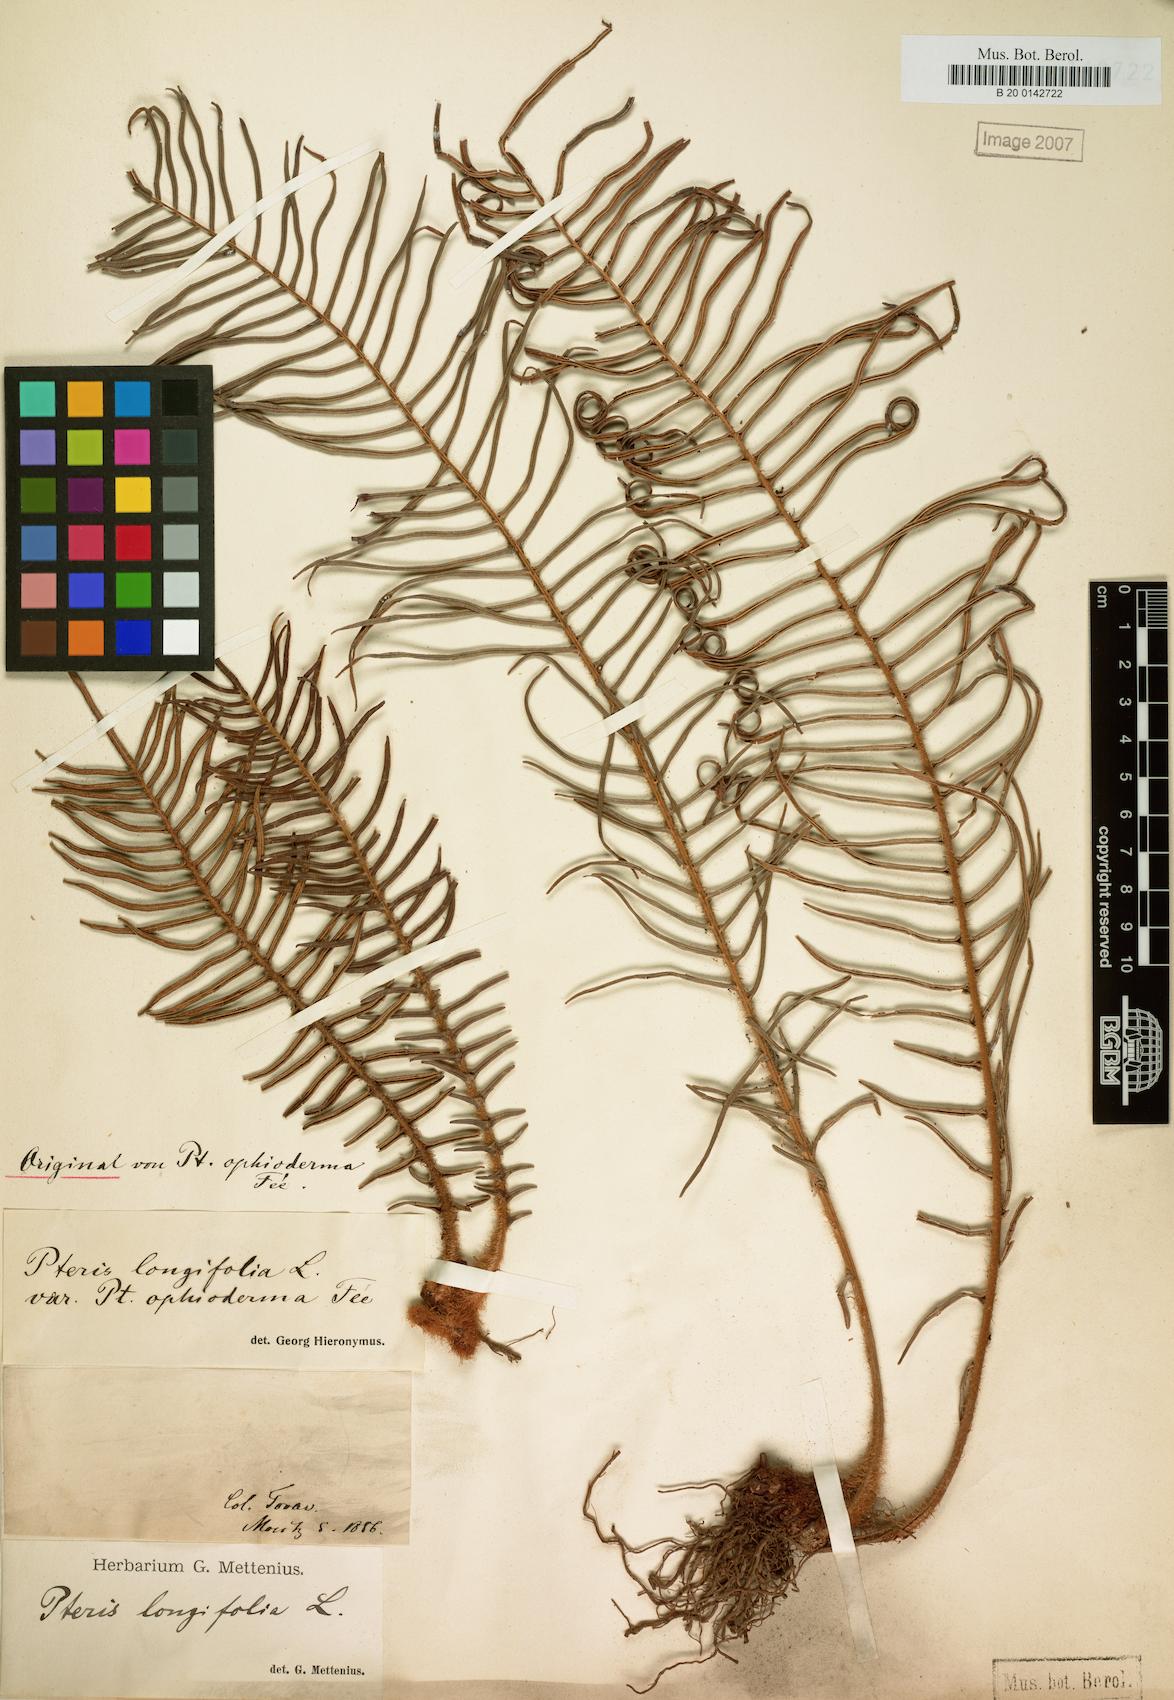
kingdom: Plantae
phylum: Tracheophyta
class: Polypodiopsida
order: Polypodiales
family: Pteridaceae
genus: Pteris
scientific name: Pteris vittata
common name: Ladder brake
